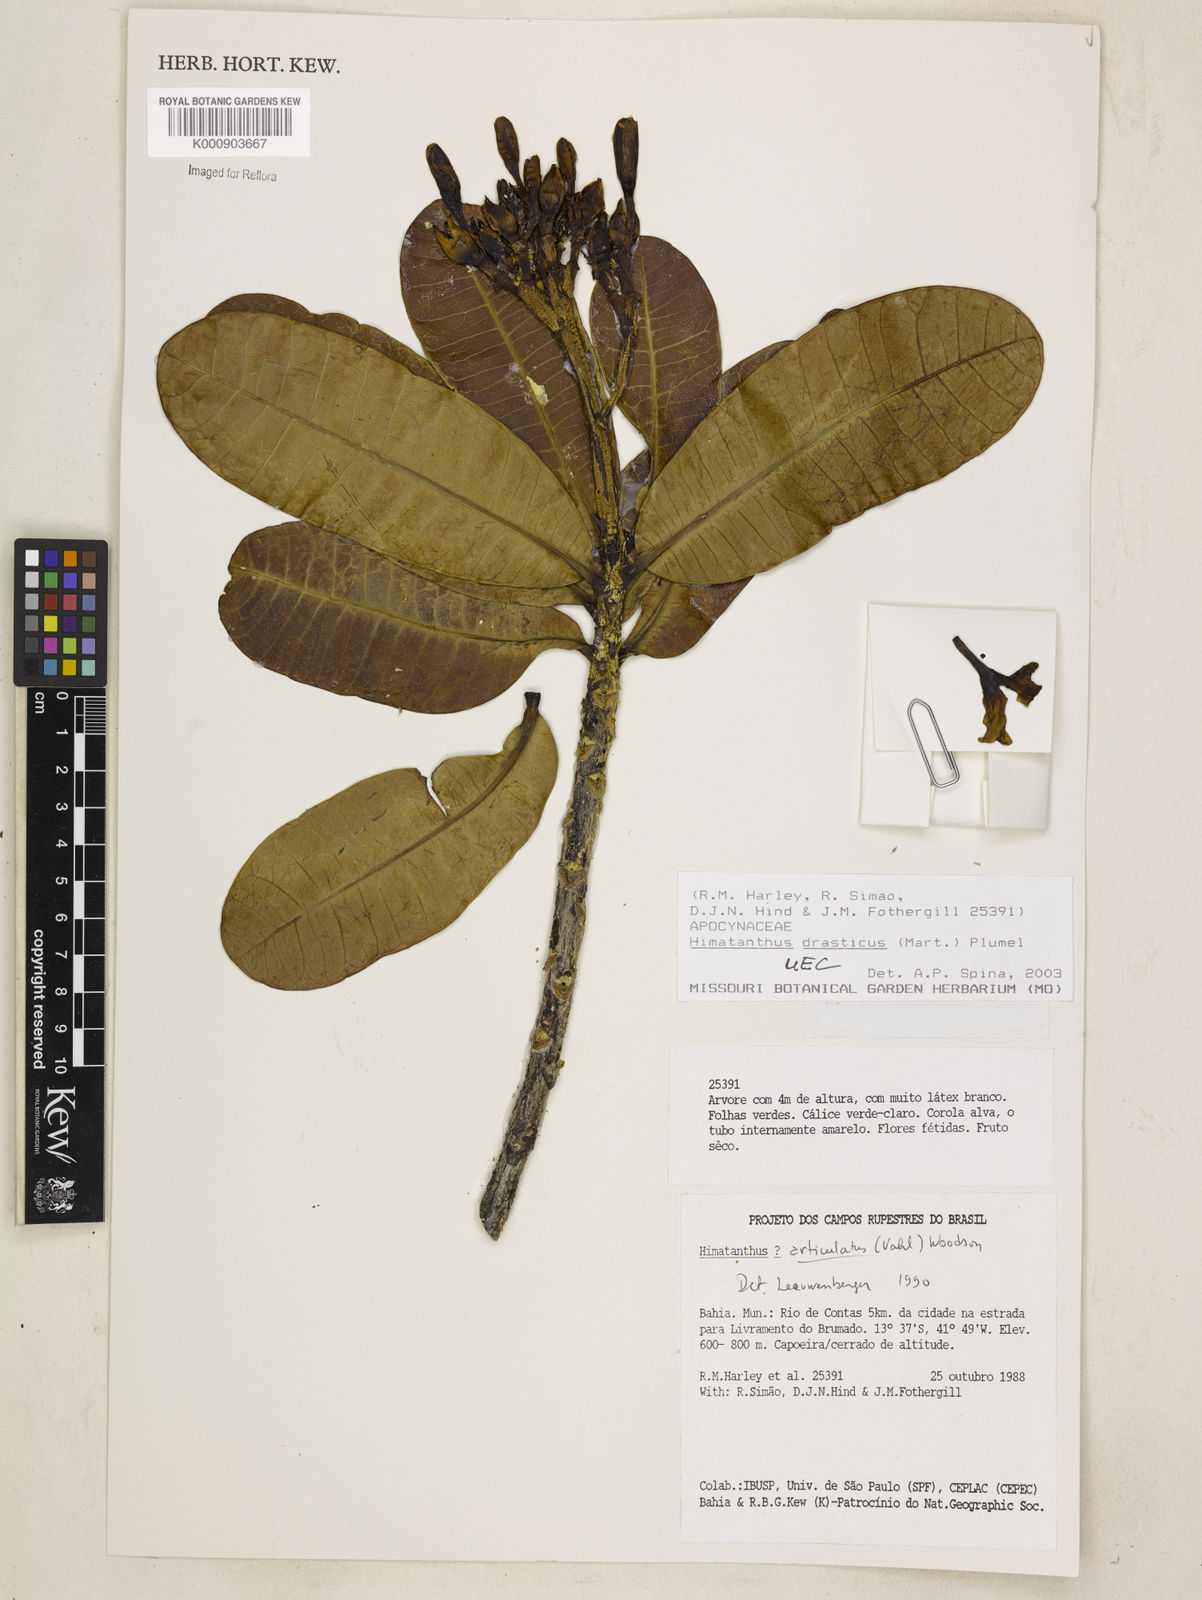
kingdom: Plantae
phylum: Tracheophyta
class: Magnoliopsida
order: Gentianales
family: Apocynaceae
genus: Himatanthus
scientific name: Himatanthus drasticus
